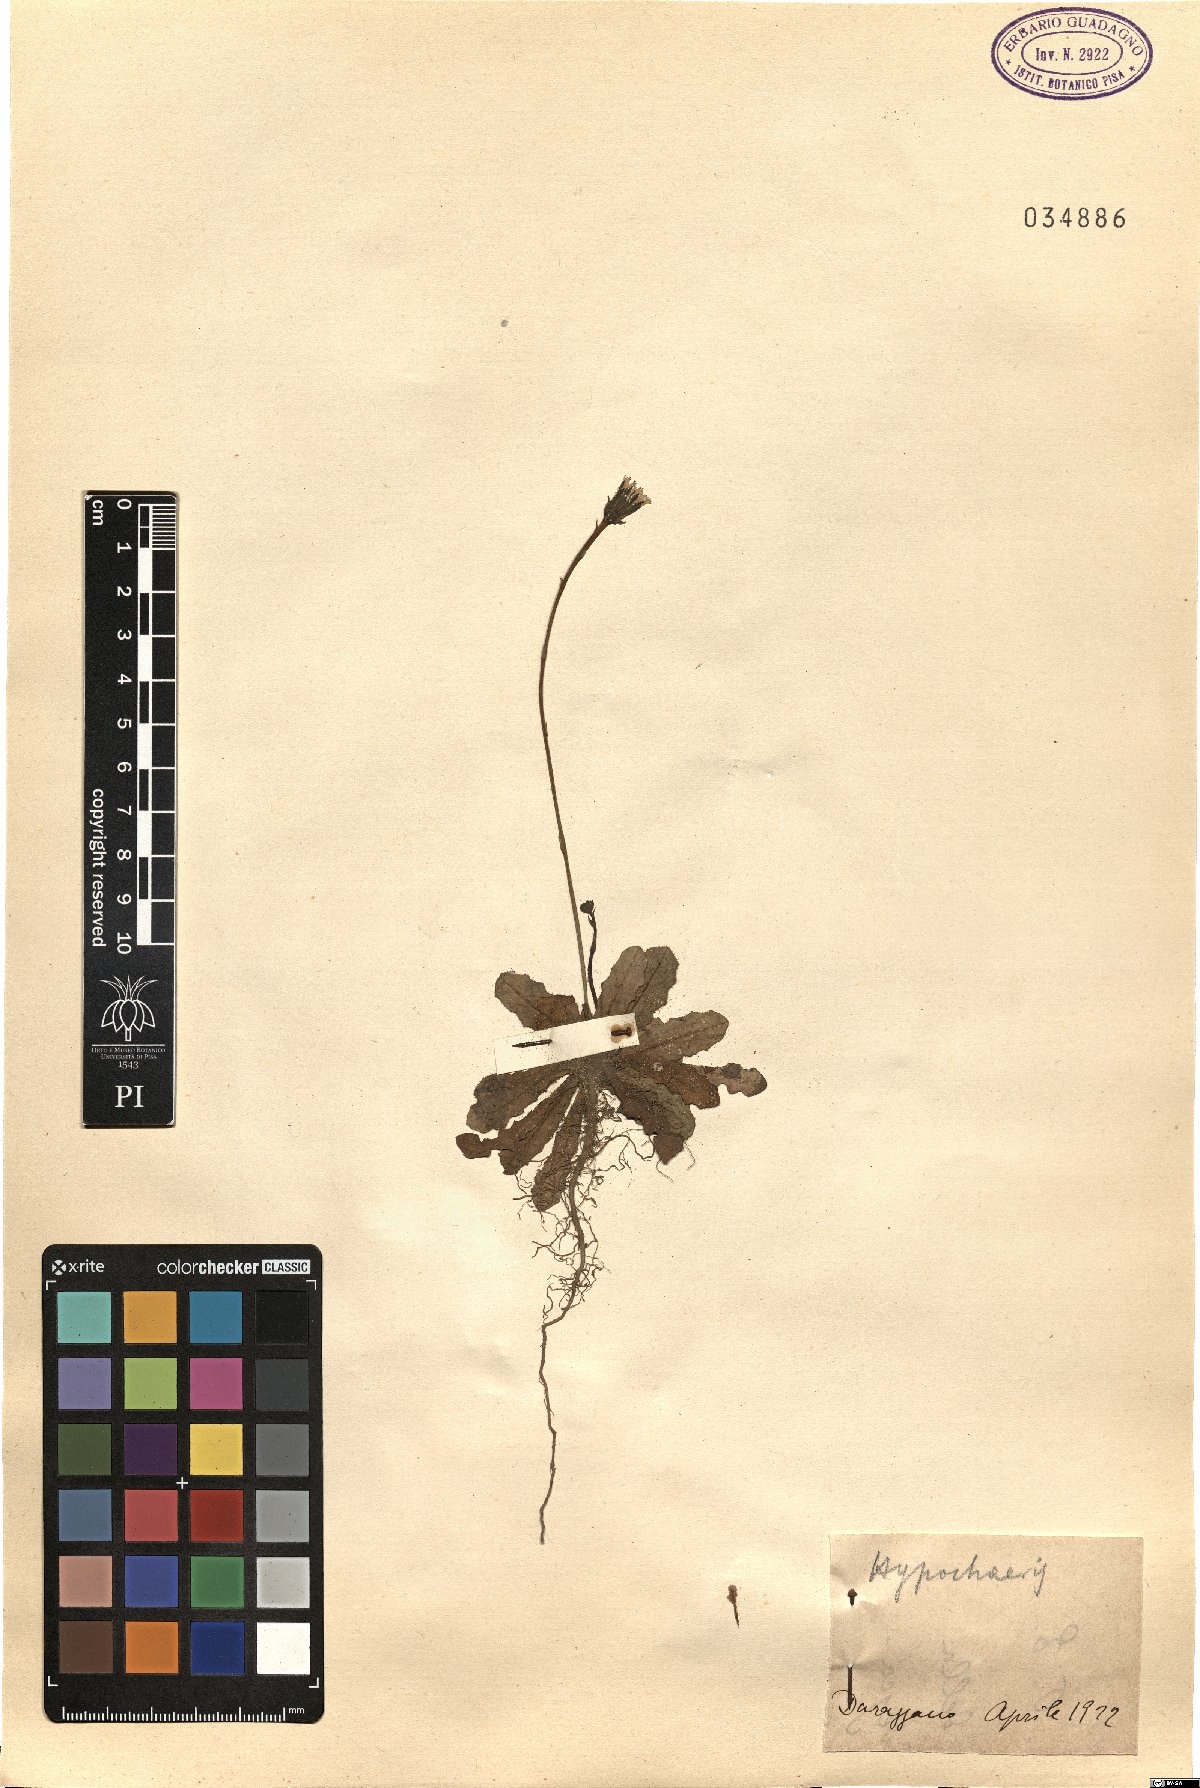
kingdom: Plantae
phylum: Tracheophyta
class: Magnoliopsida
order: Asterales
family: Asteraceae
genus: Hypochaeris
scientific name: Hypochaeris
